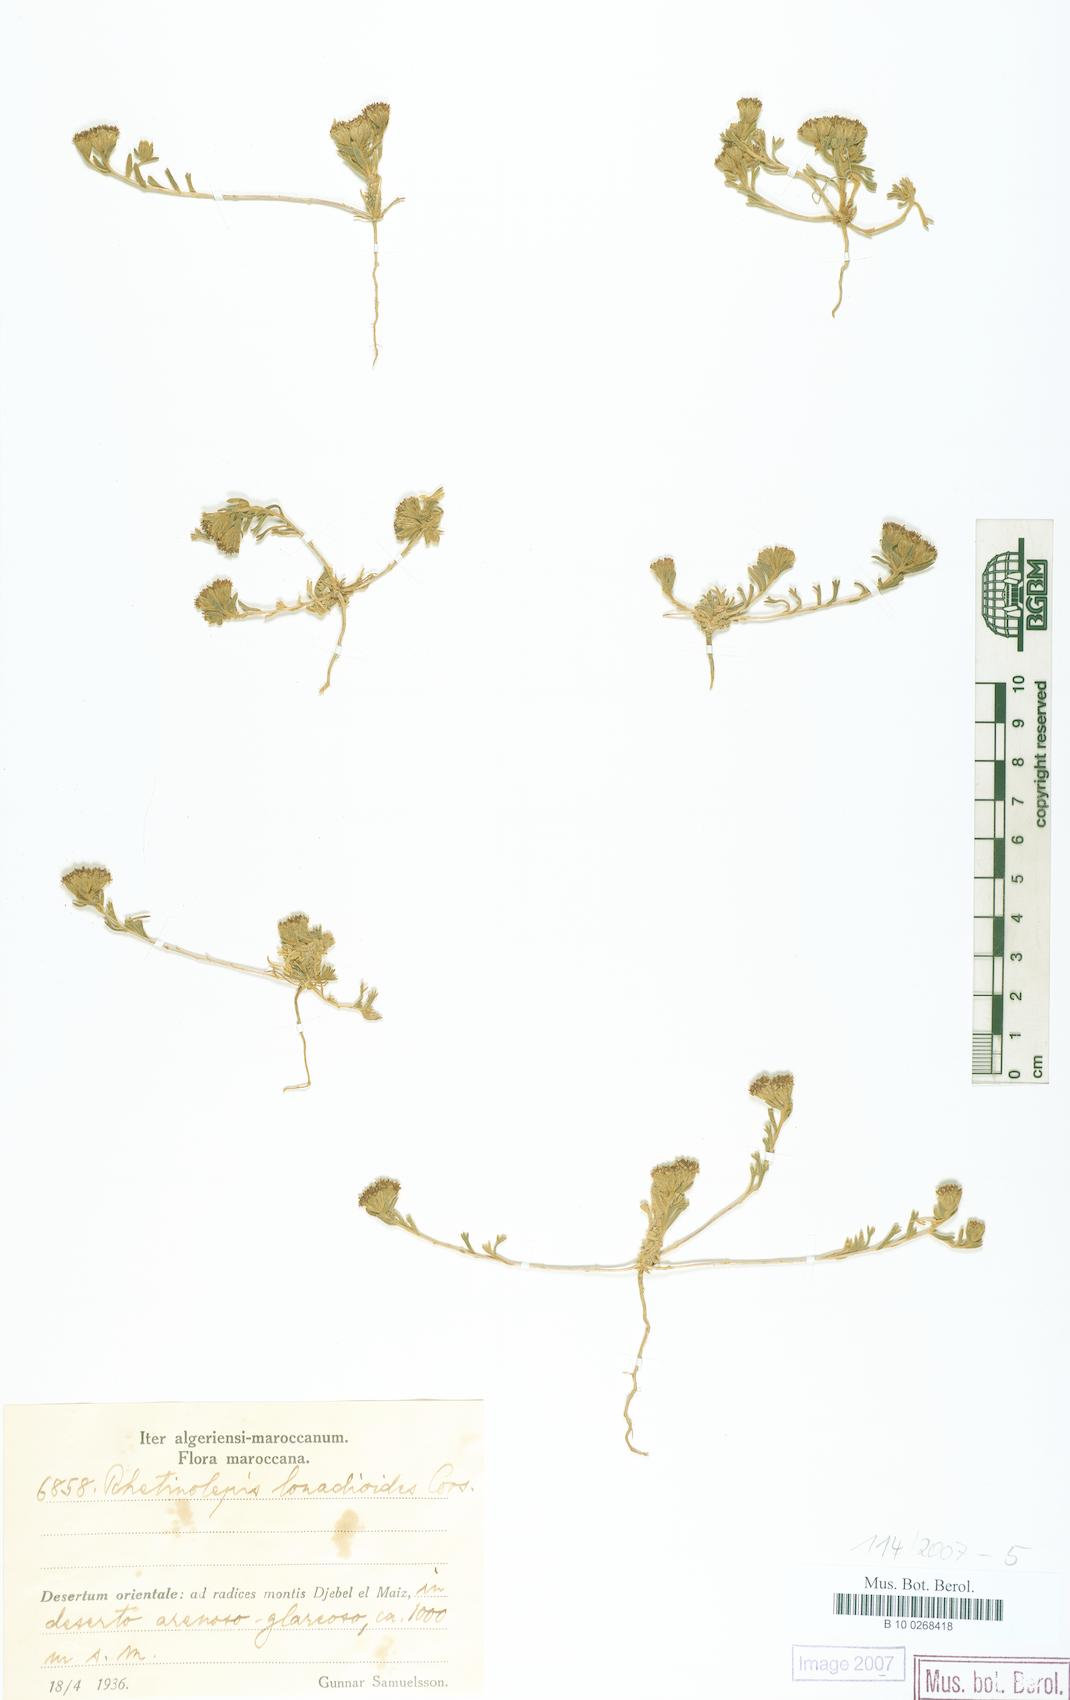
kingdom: Plantae
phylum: Tracheophyta
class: Magnoliopsida
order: Asterales
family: Asteraceae
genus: Rhetinolepis
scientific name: Rhetinolepis lonadioides
